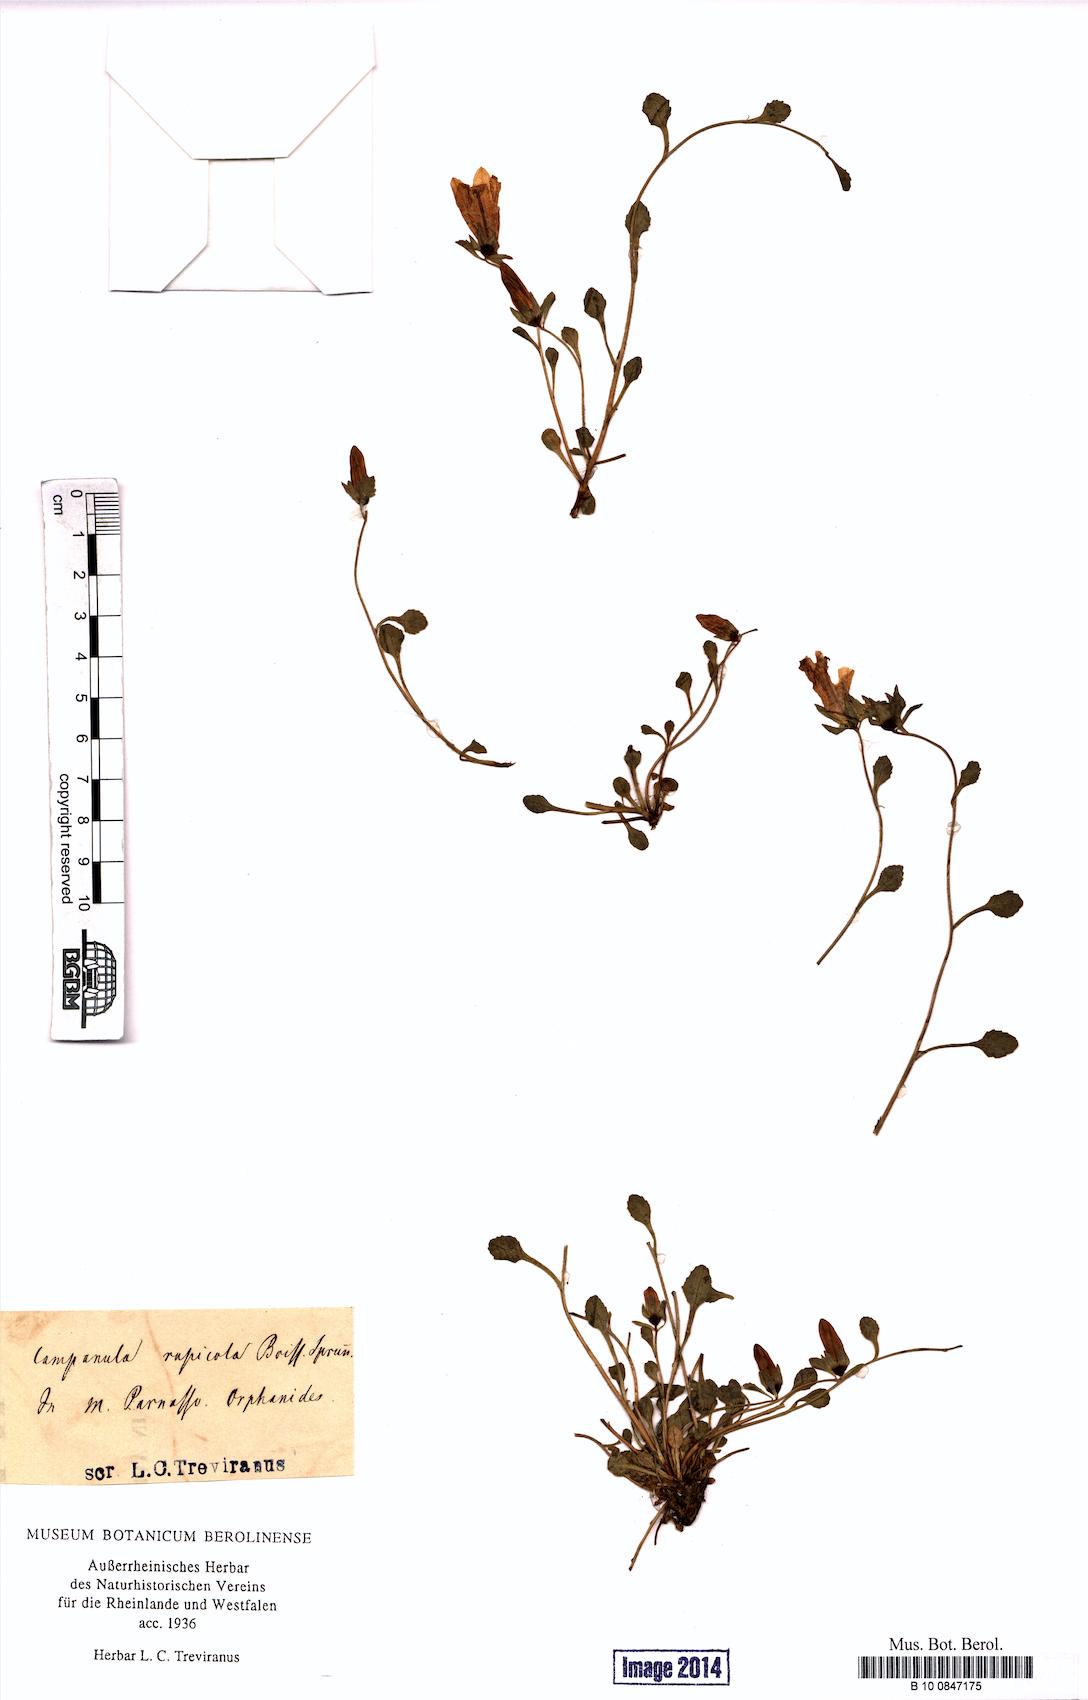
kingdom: Plantae
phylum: Tracheophyta
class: Magnoliopsida
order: Asterales
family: Campanulaceae
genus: Campanula
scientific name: Campanula rupicola
